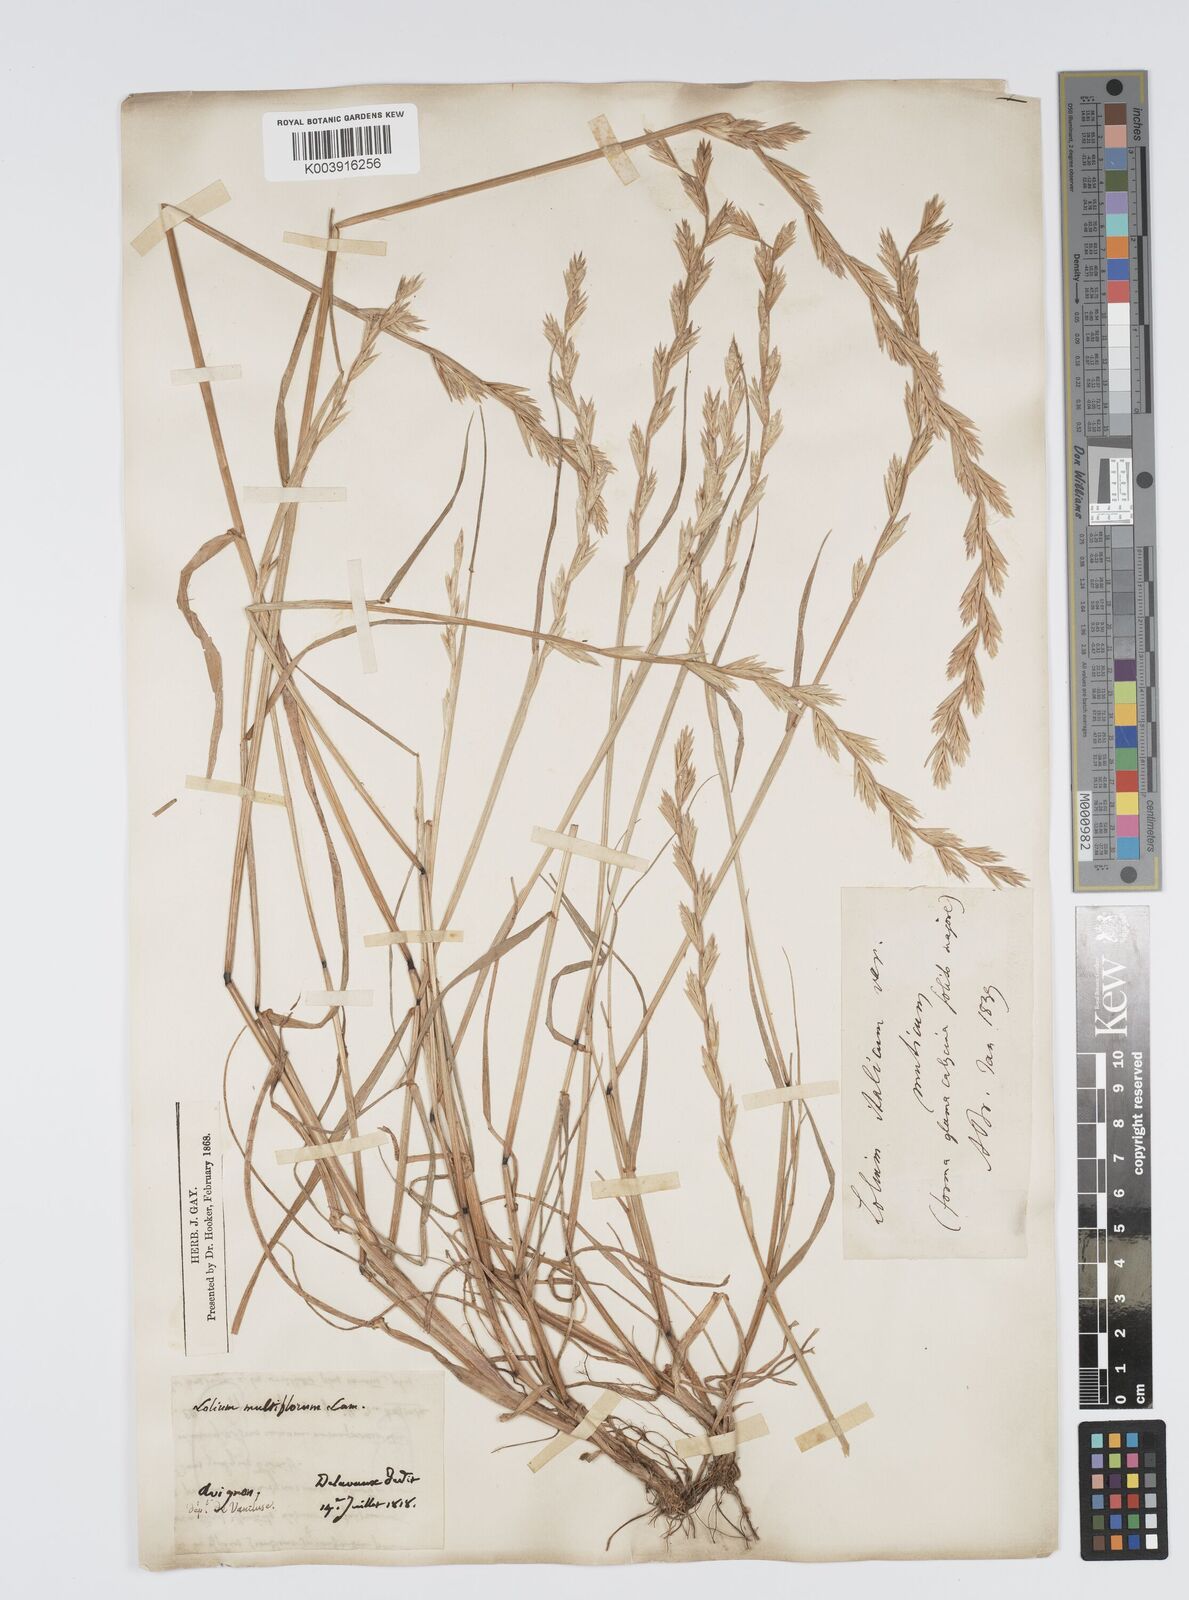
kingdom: Plantae
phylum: Tracheophyta
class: Liliopsida
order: Poales
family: Poaceae
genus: Lolium
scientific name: Lolium rigidum
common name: Wimmera ryegrass
